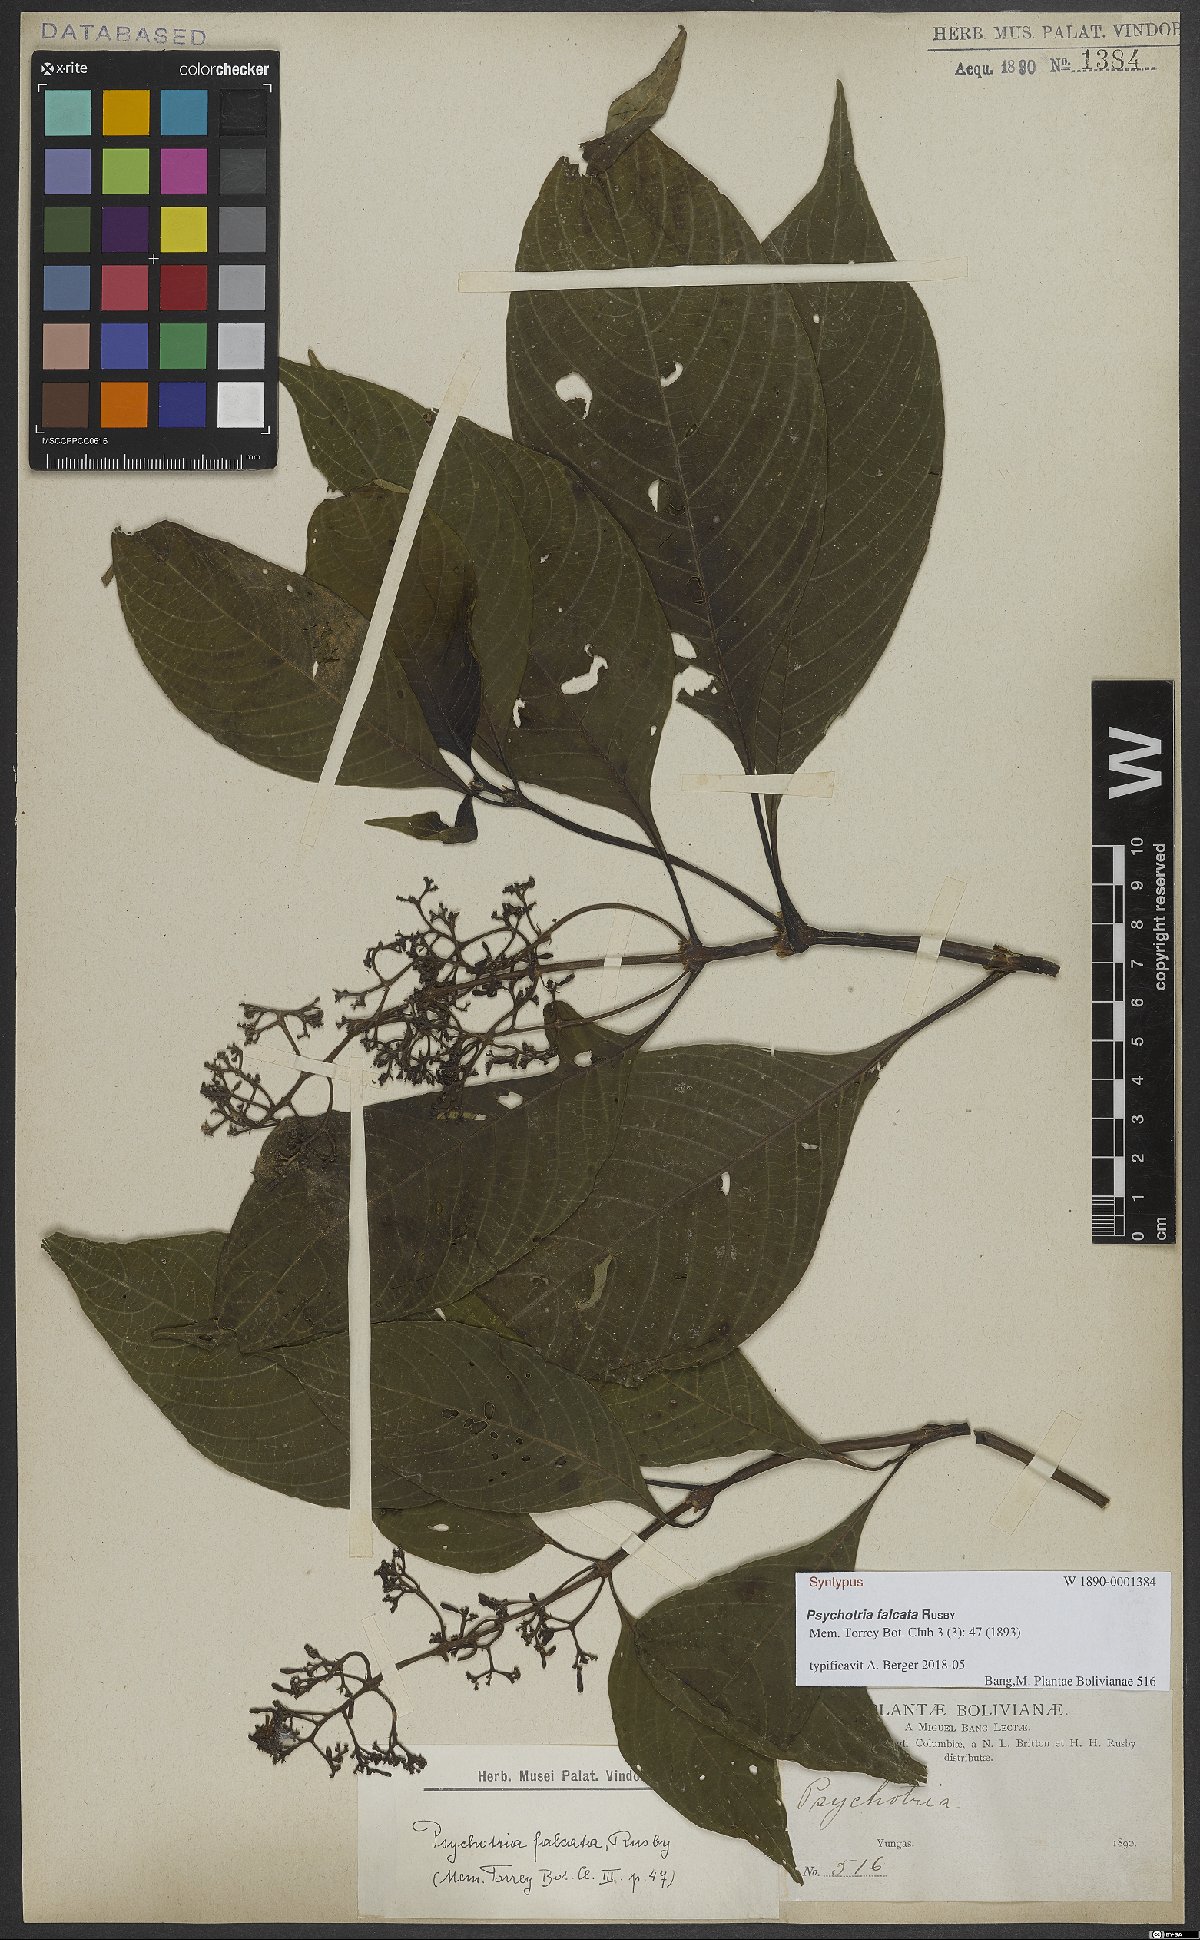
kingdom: Plantae
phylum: Tracheophyta
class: Magnoliopsida
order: Gentianales
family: Rubiaceae
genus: Palicourea
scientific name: Palicourea falcata
